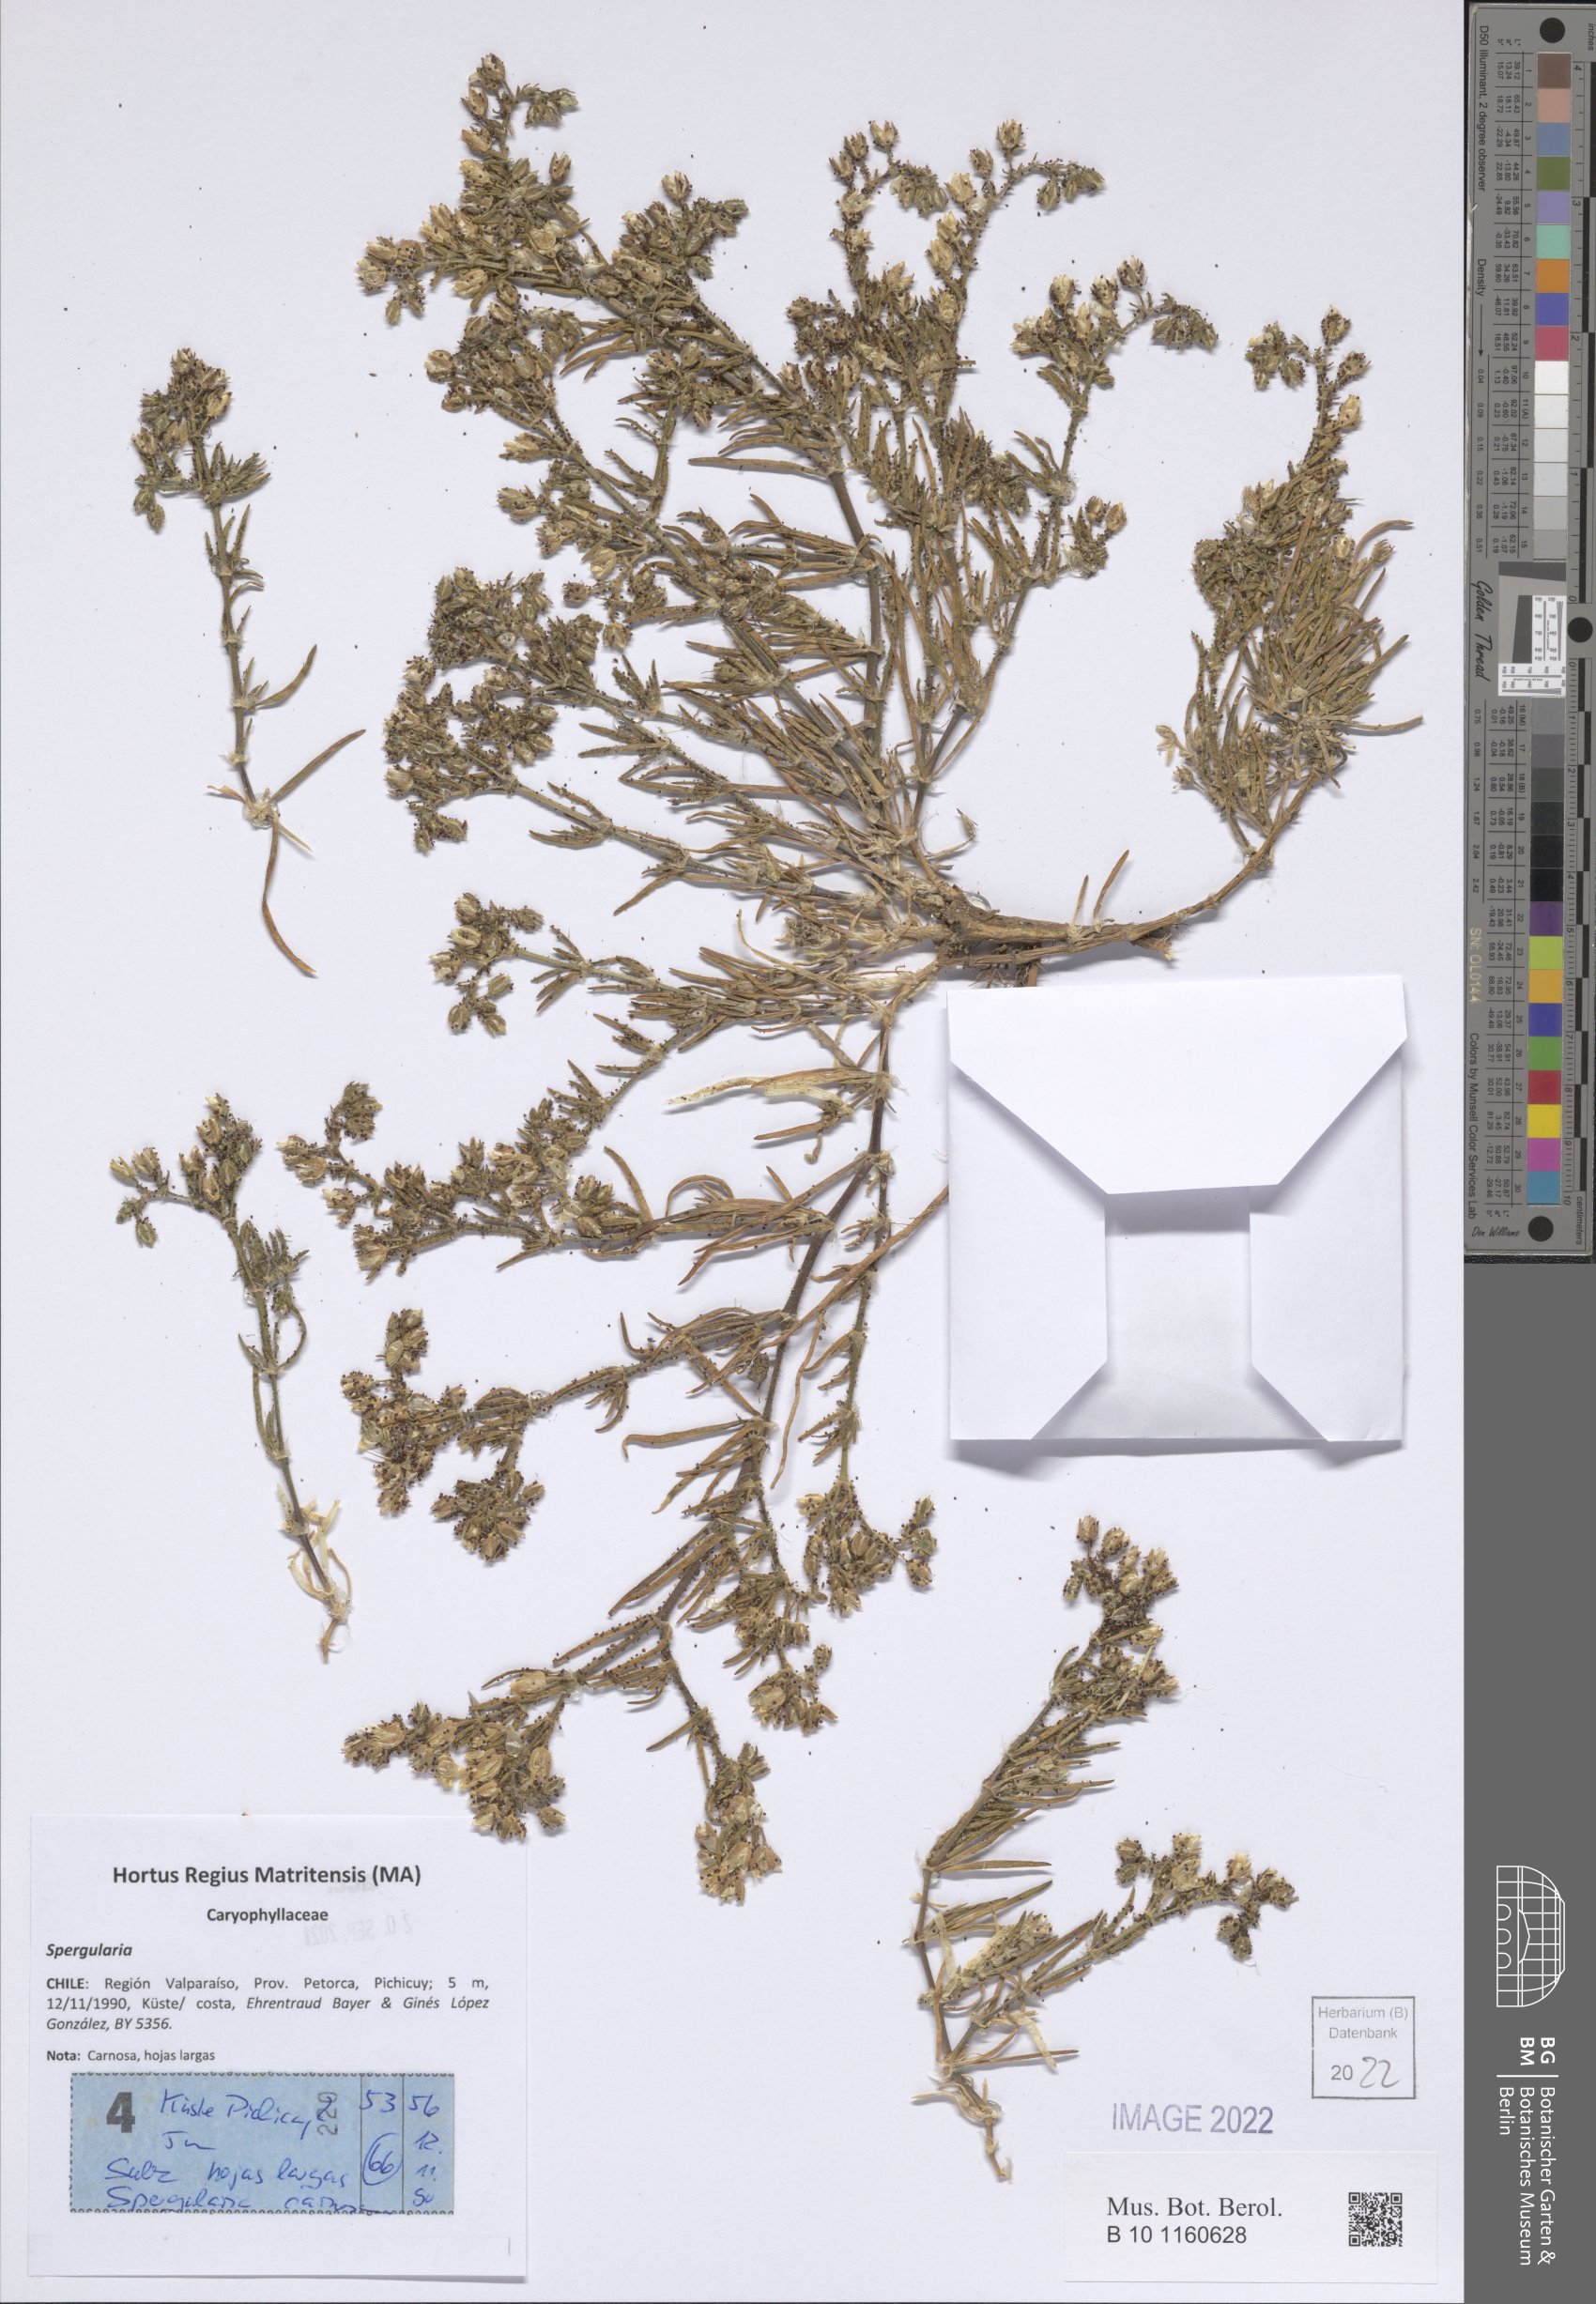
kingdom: Plantae
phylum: Tracheophyta
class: Magnoliopsida
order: Caryophyllales
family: Caryophyllaceae
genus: Spergularia
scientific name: Spergularia
